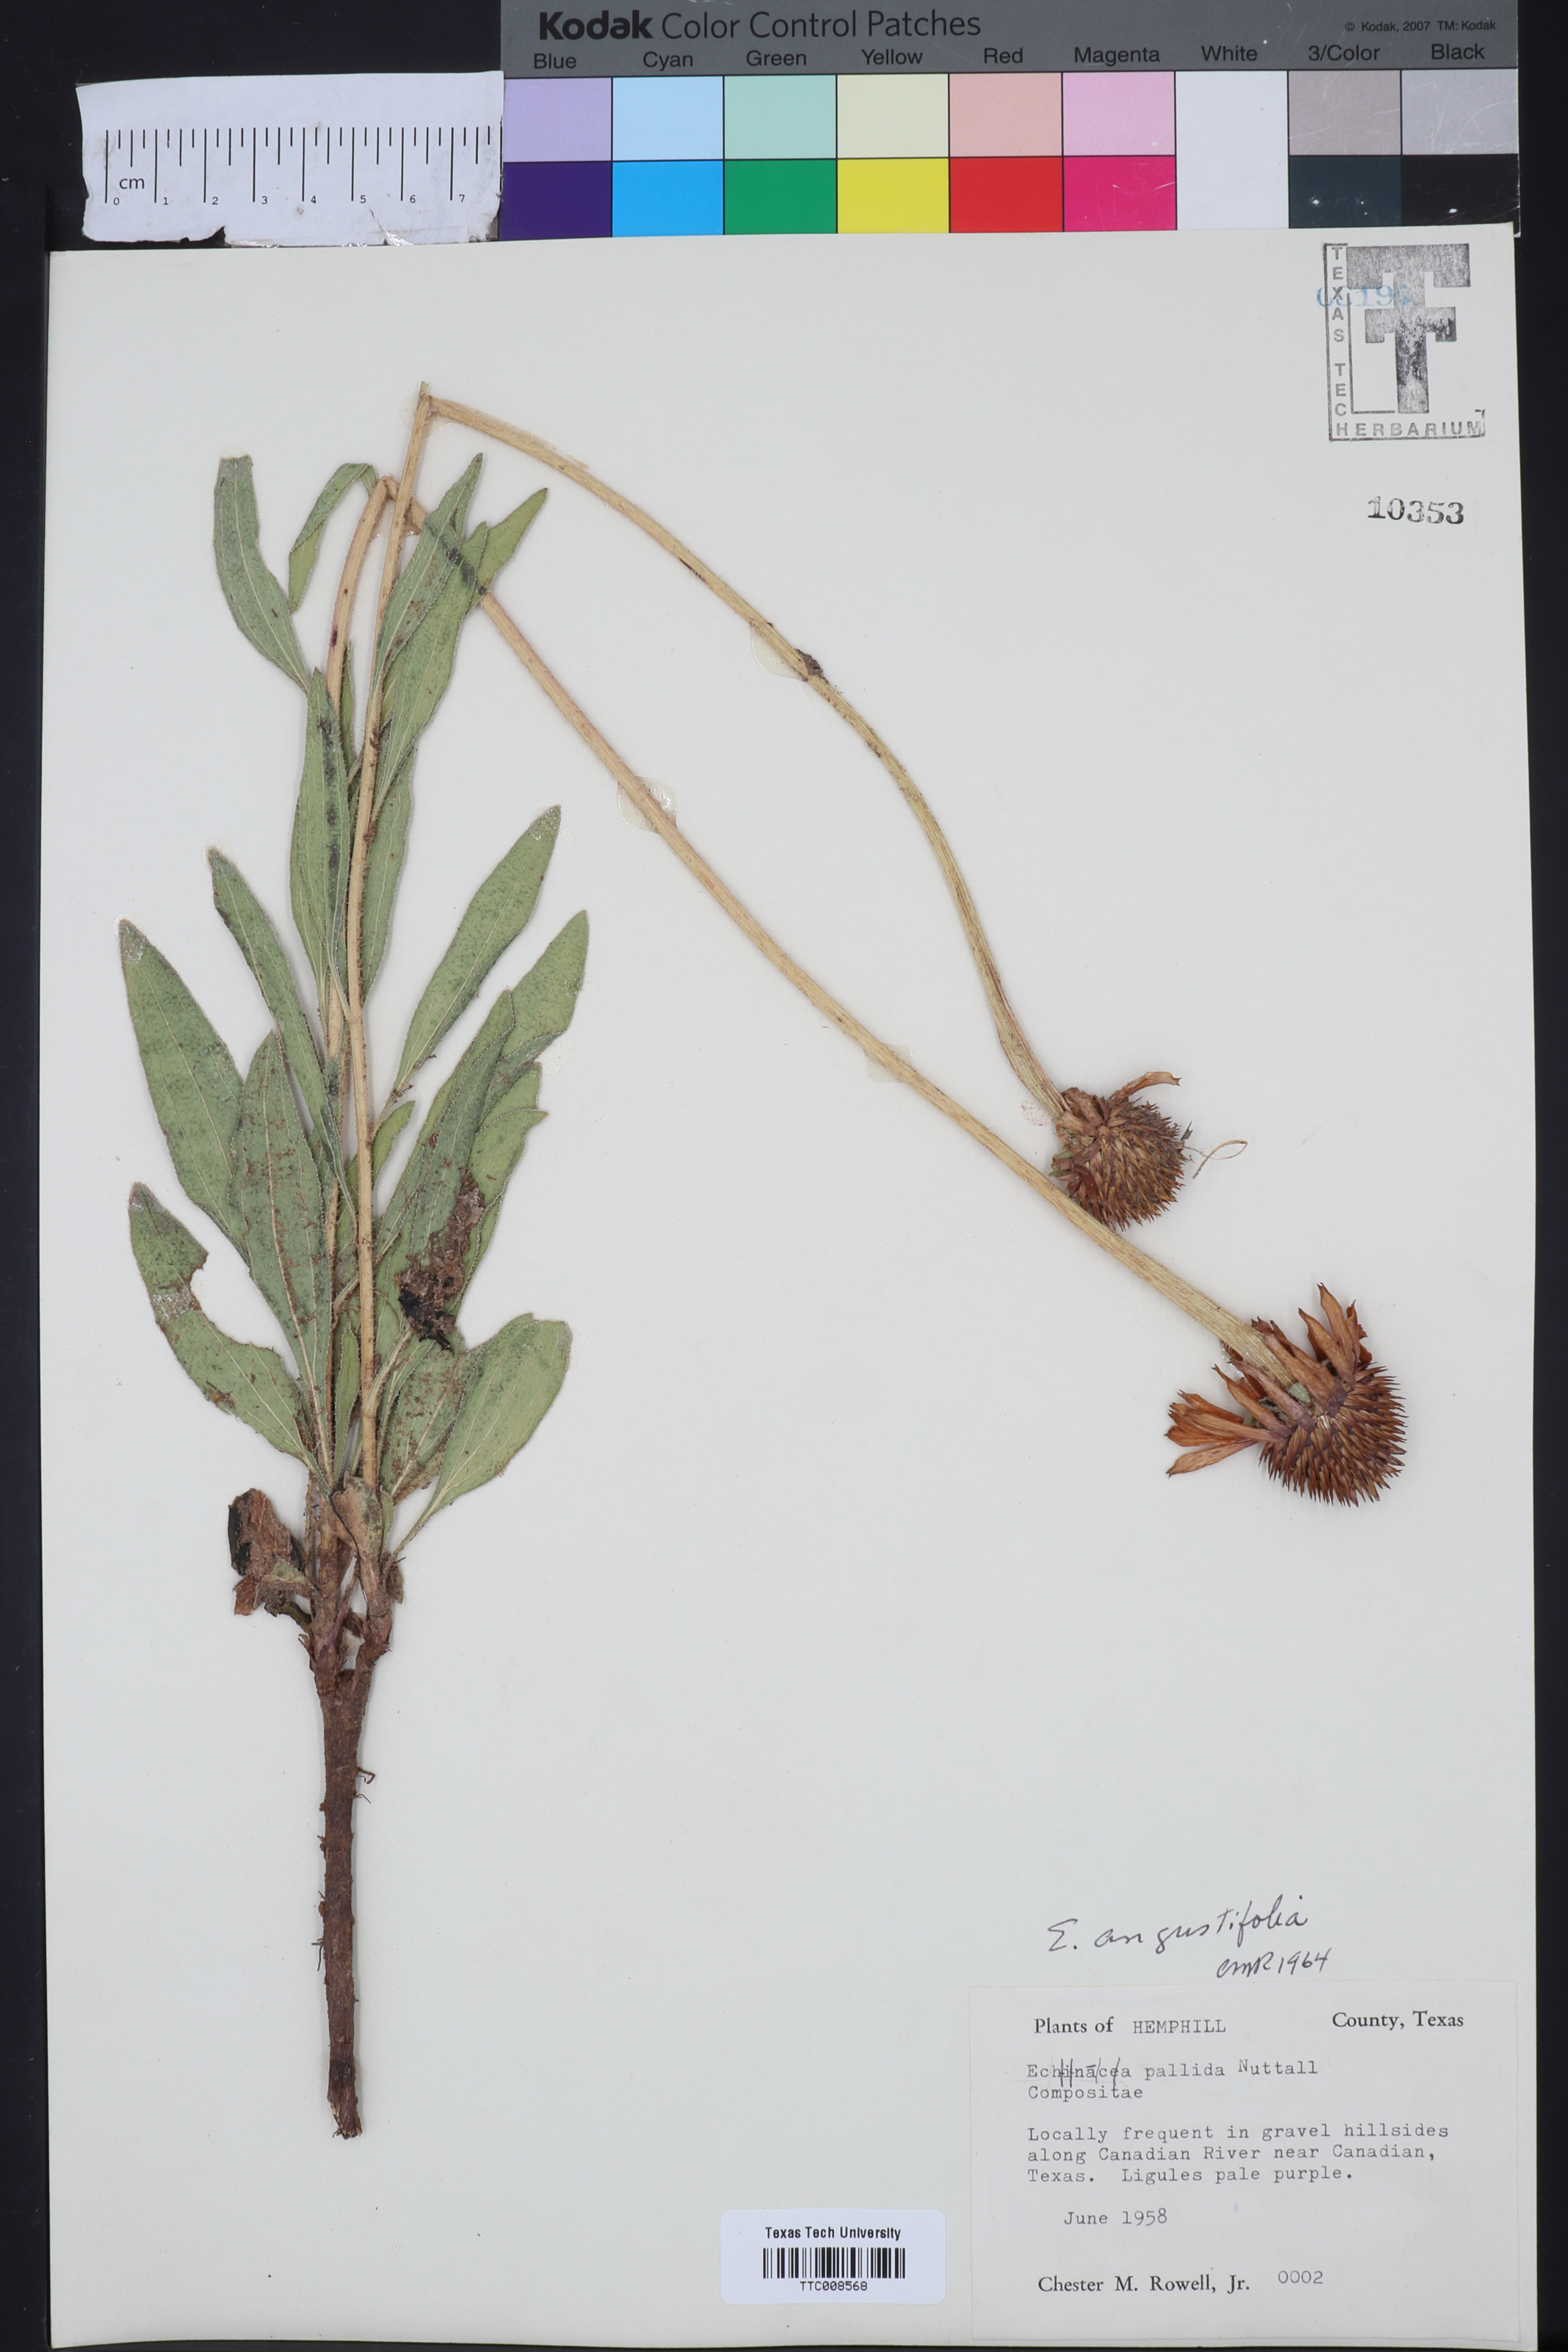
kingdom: Plantae
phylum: Tracheophyta
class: Magnoliopsida
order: Asterales
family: Asteraceae
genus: Echinacea
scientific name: Echinacea angustifolia
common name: Black-sampson echinacea
